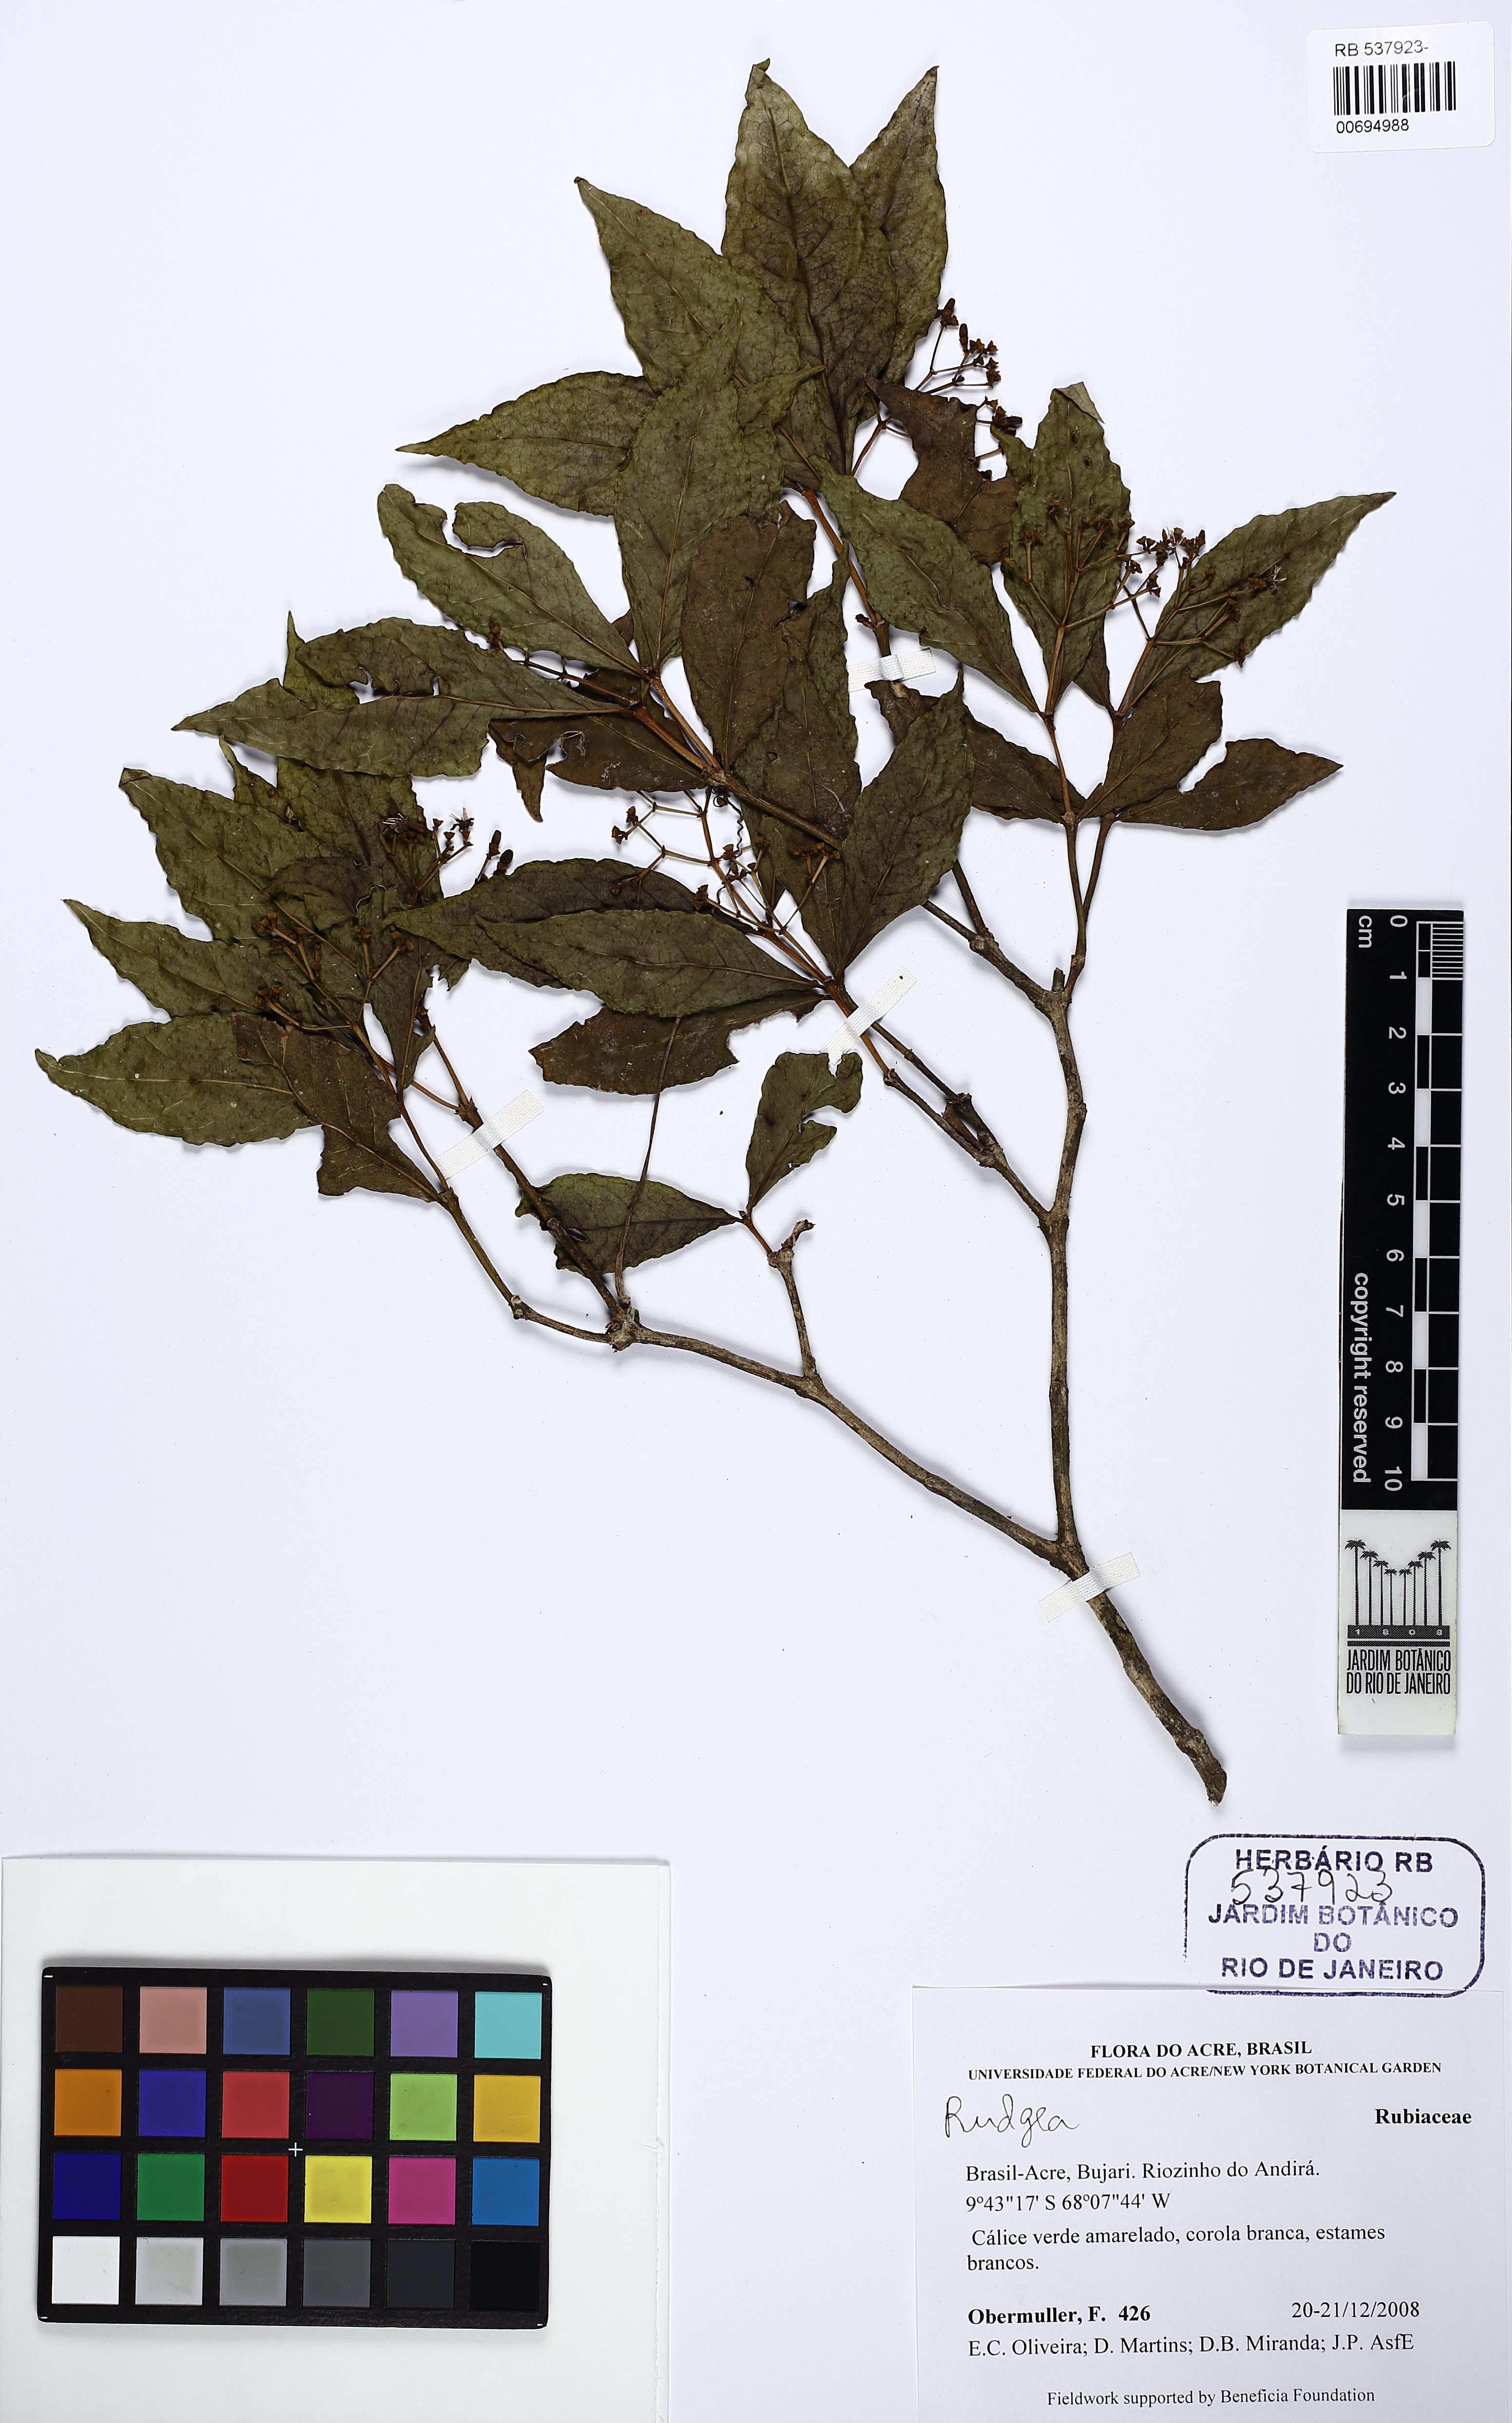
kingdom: Plantae
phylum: Tracheophyta
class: Magnoliopsida
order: Gentianales
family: Rubiaceae
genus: Rudgea
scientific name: Rudgea
